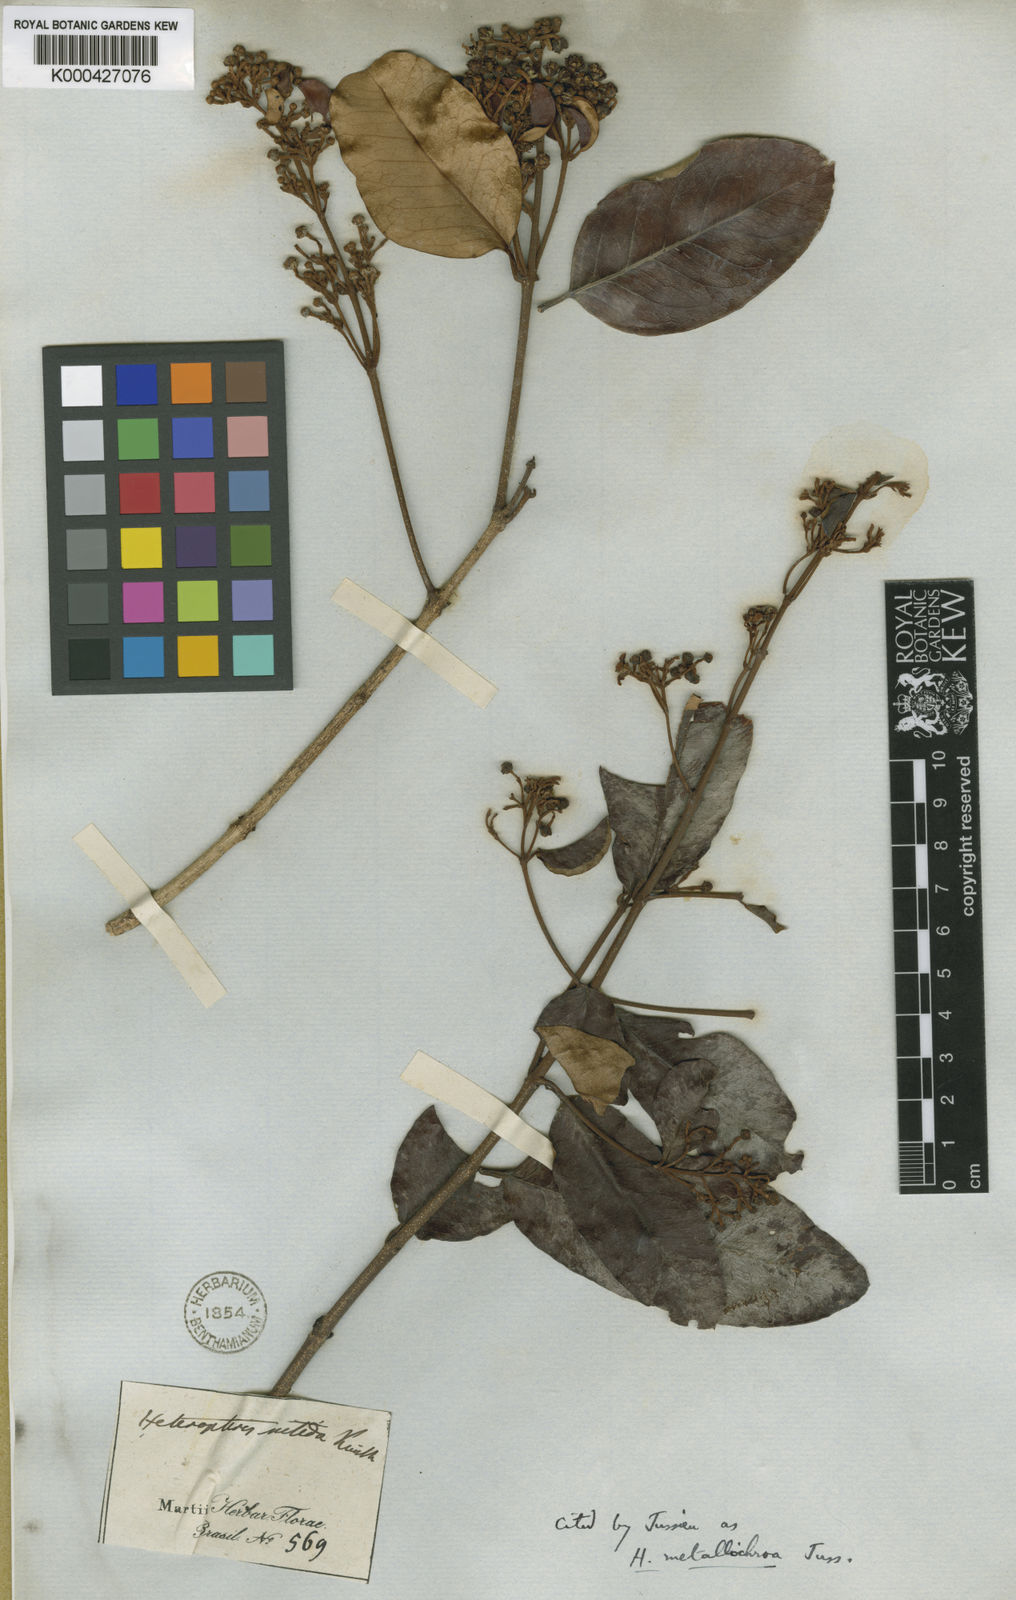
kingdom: Plantae
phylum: Tracheophyta
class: Magnoliopsida
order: Malpighiales
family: Malpighiaceae
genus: Heteropterys
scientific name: Heteropterys aenea
